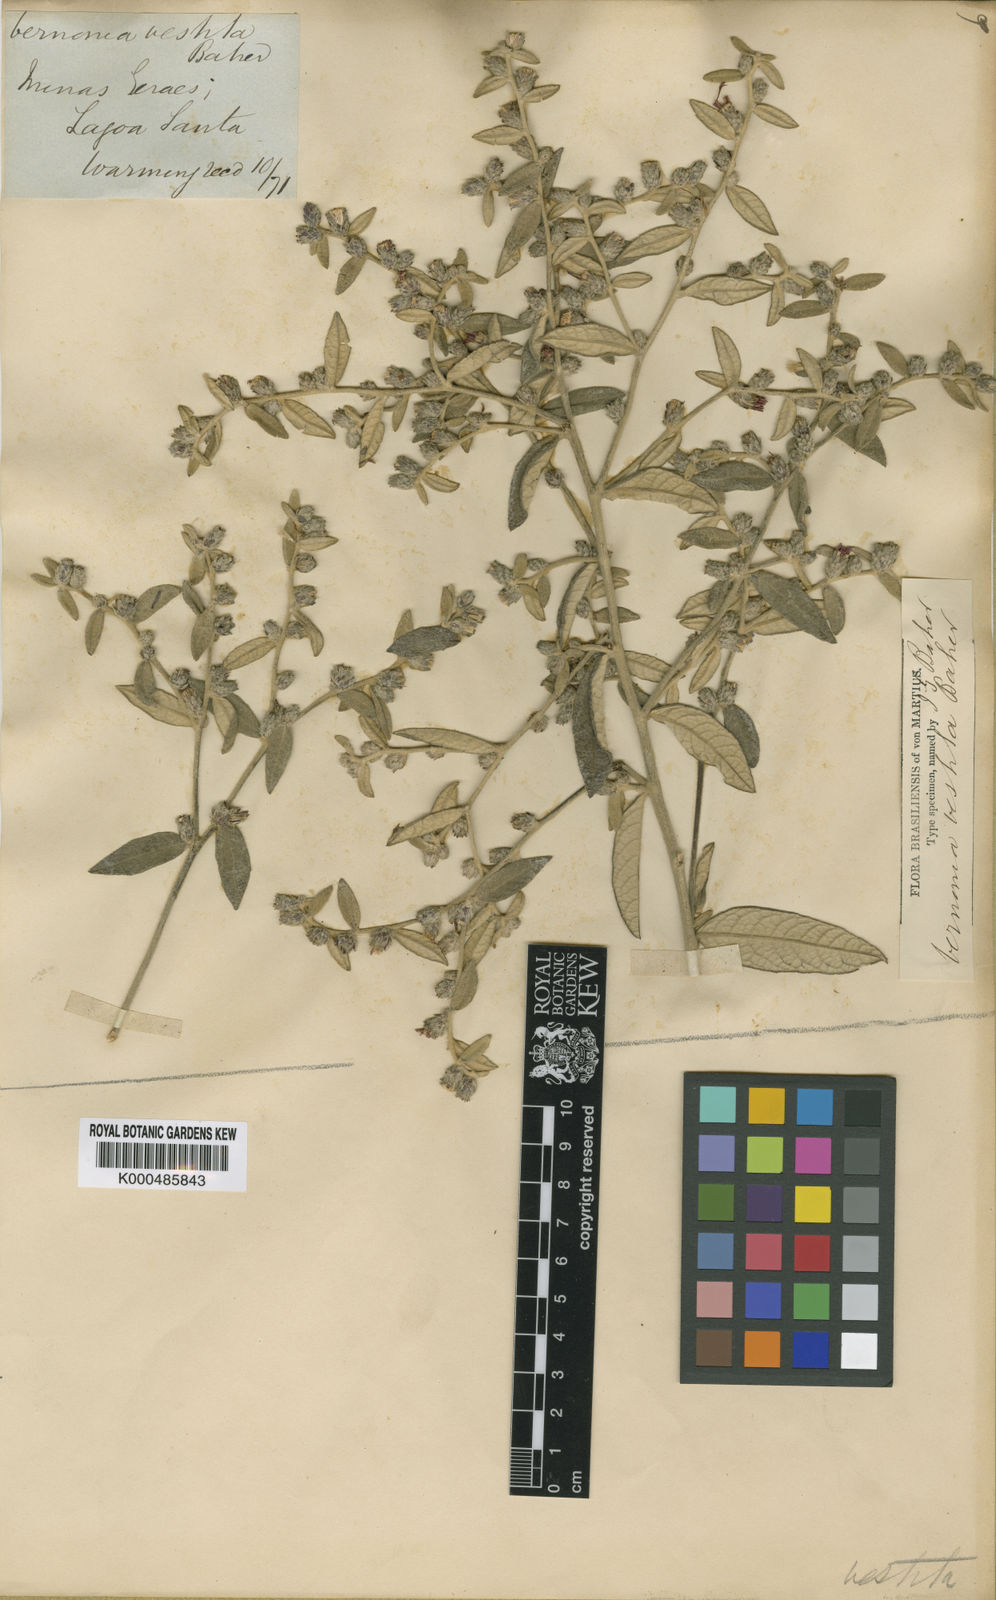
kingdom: Plantae
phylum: Tracheophyta
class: Magnoliopsida
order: Asterales
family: Asteraceae
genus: Lessingianthus
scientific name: Lessingianthus vestitus
